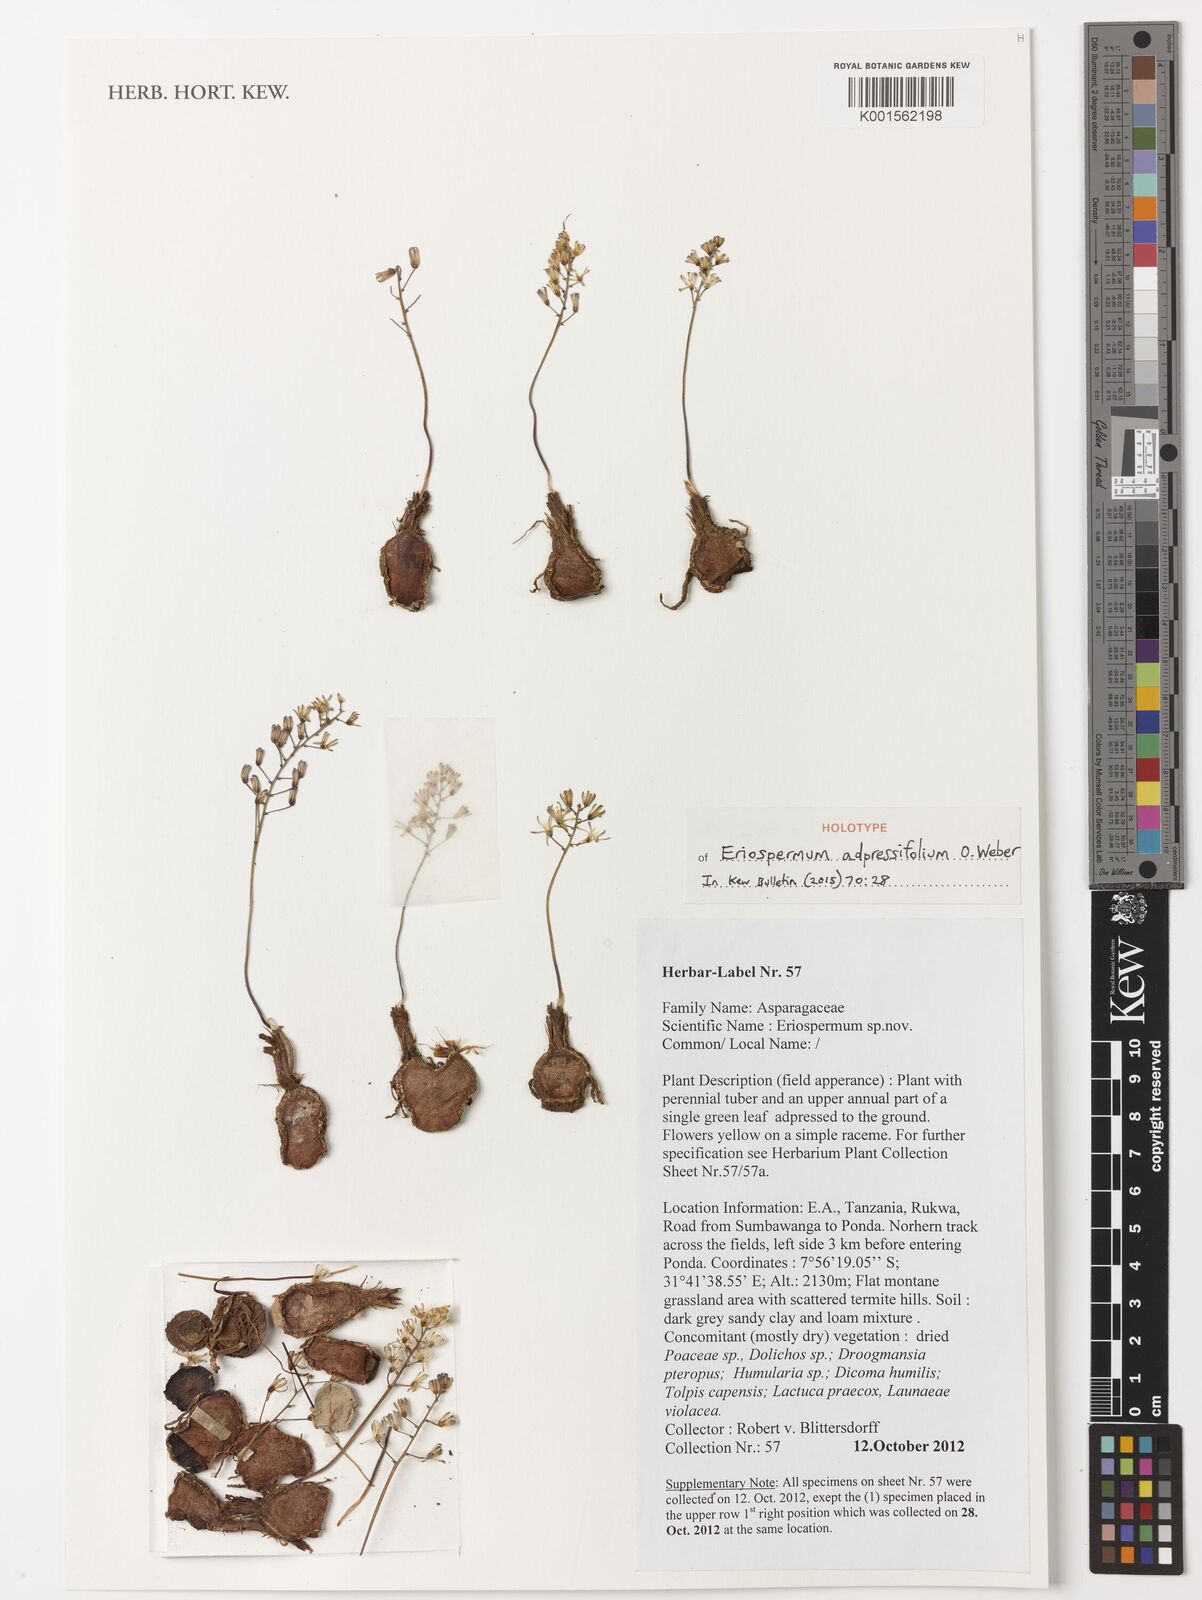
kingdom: Plantae
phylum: Tracheophyta
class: Liliopsida
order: Asparagales
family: Asparagaceae
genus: Eriospermum
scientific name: Eriospermum adpressifolium
